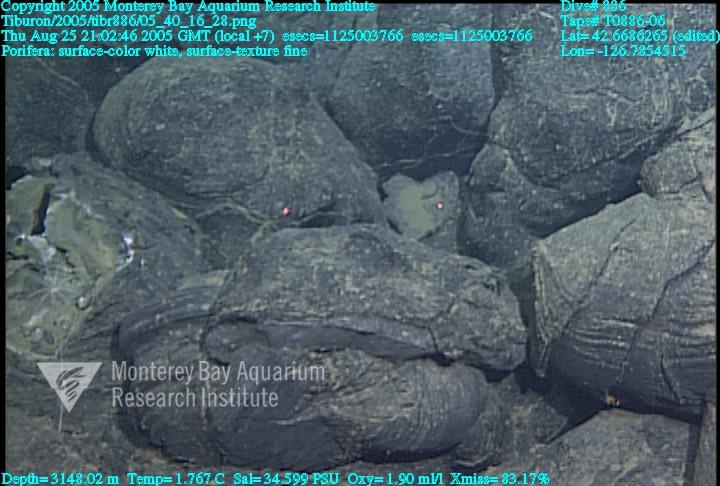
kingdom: Animalia
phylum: Porifera
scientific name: Porifera
